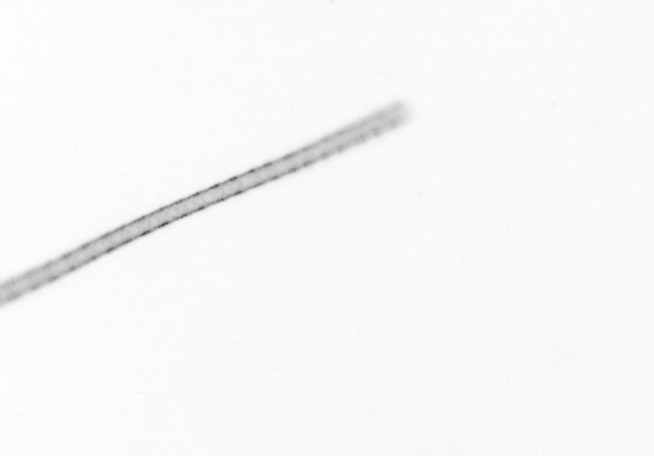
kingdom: Chromista
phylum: Ochrophyta
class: Bacillariophyceae
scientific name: Bacillariophyceae
